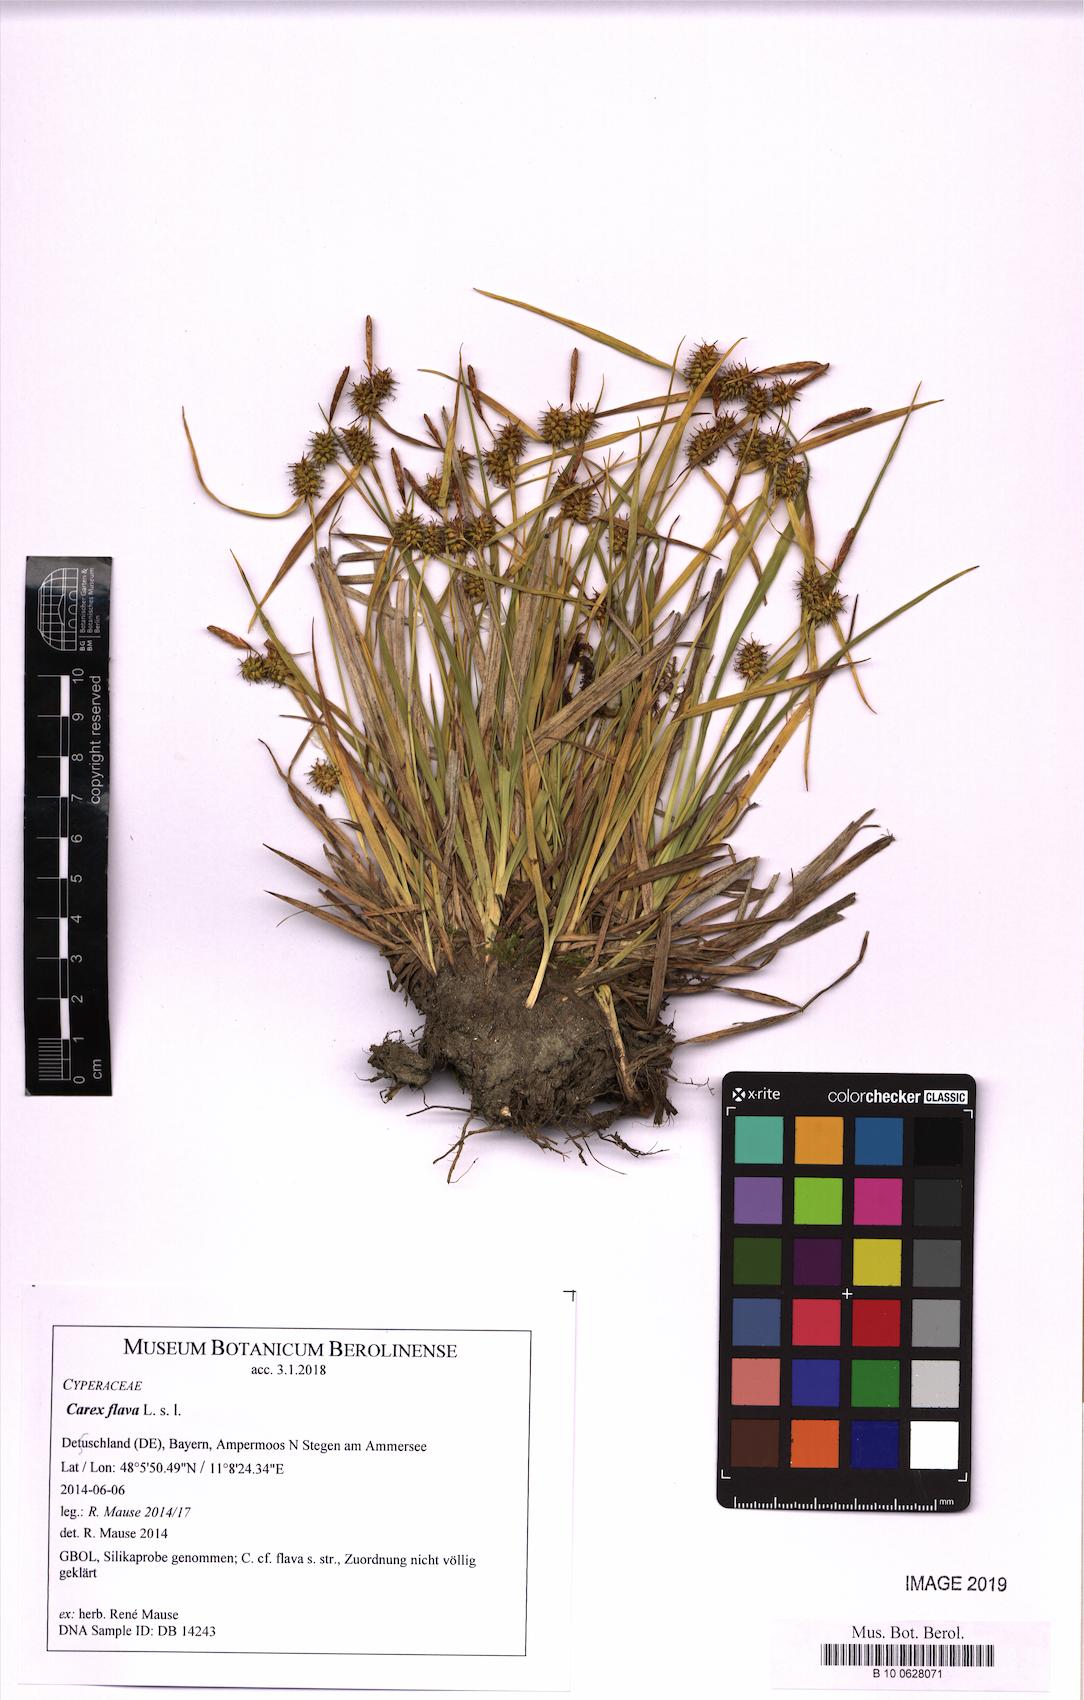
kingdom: Plantae
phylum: Tracheophyta
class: Liliopsida
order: Poales
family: Cyperaceae
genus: Carex
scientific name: Carex flava
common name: Large yellow-sedge
